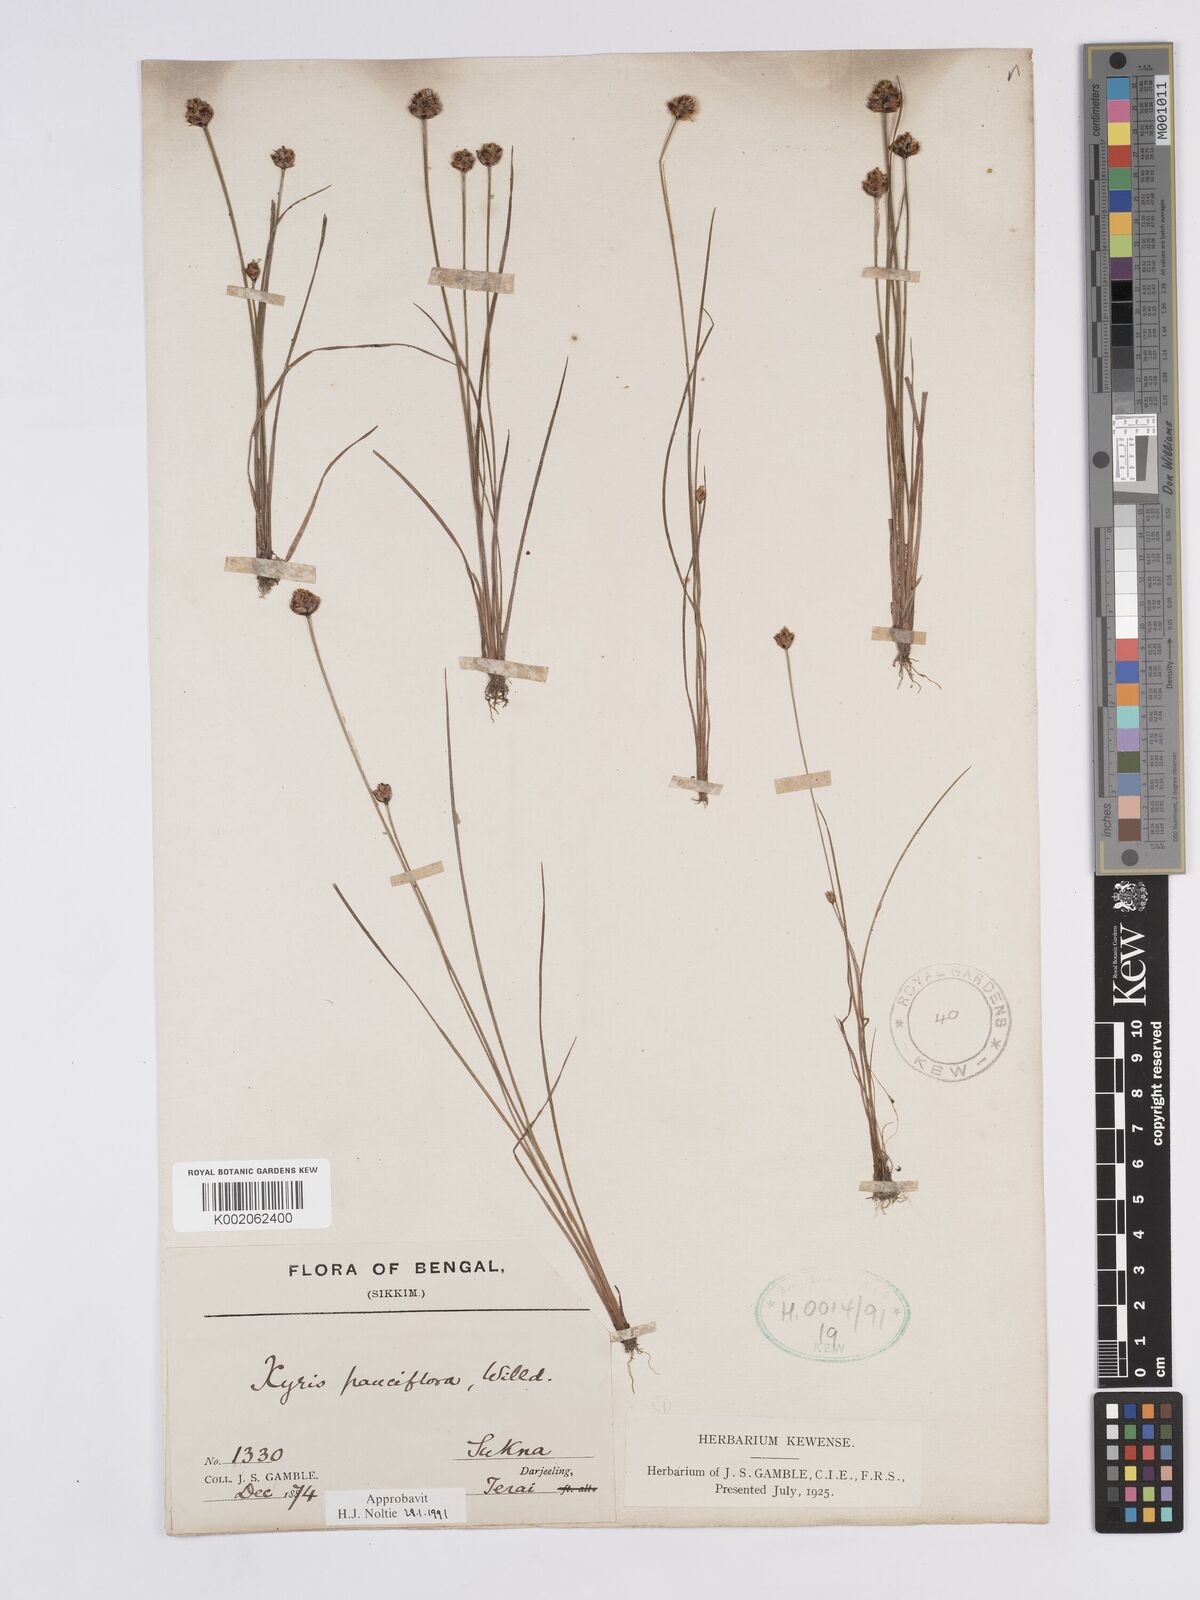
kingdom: Plantae
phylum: Tracheophyta
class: Liliopsida
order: Poales
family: Xyridaceae
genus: Xyris
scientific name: Xyris pauciflora
